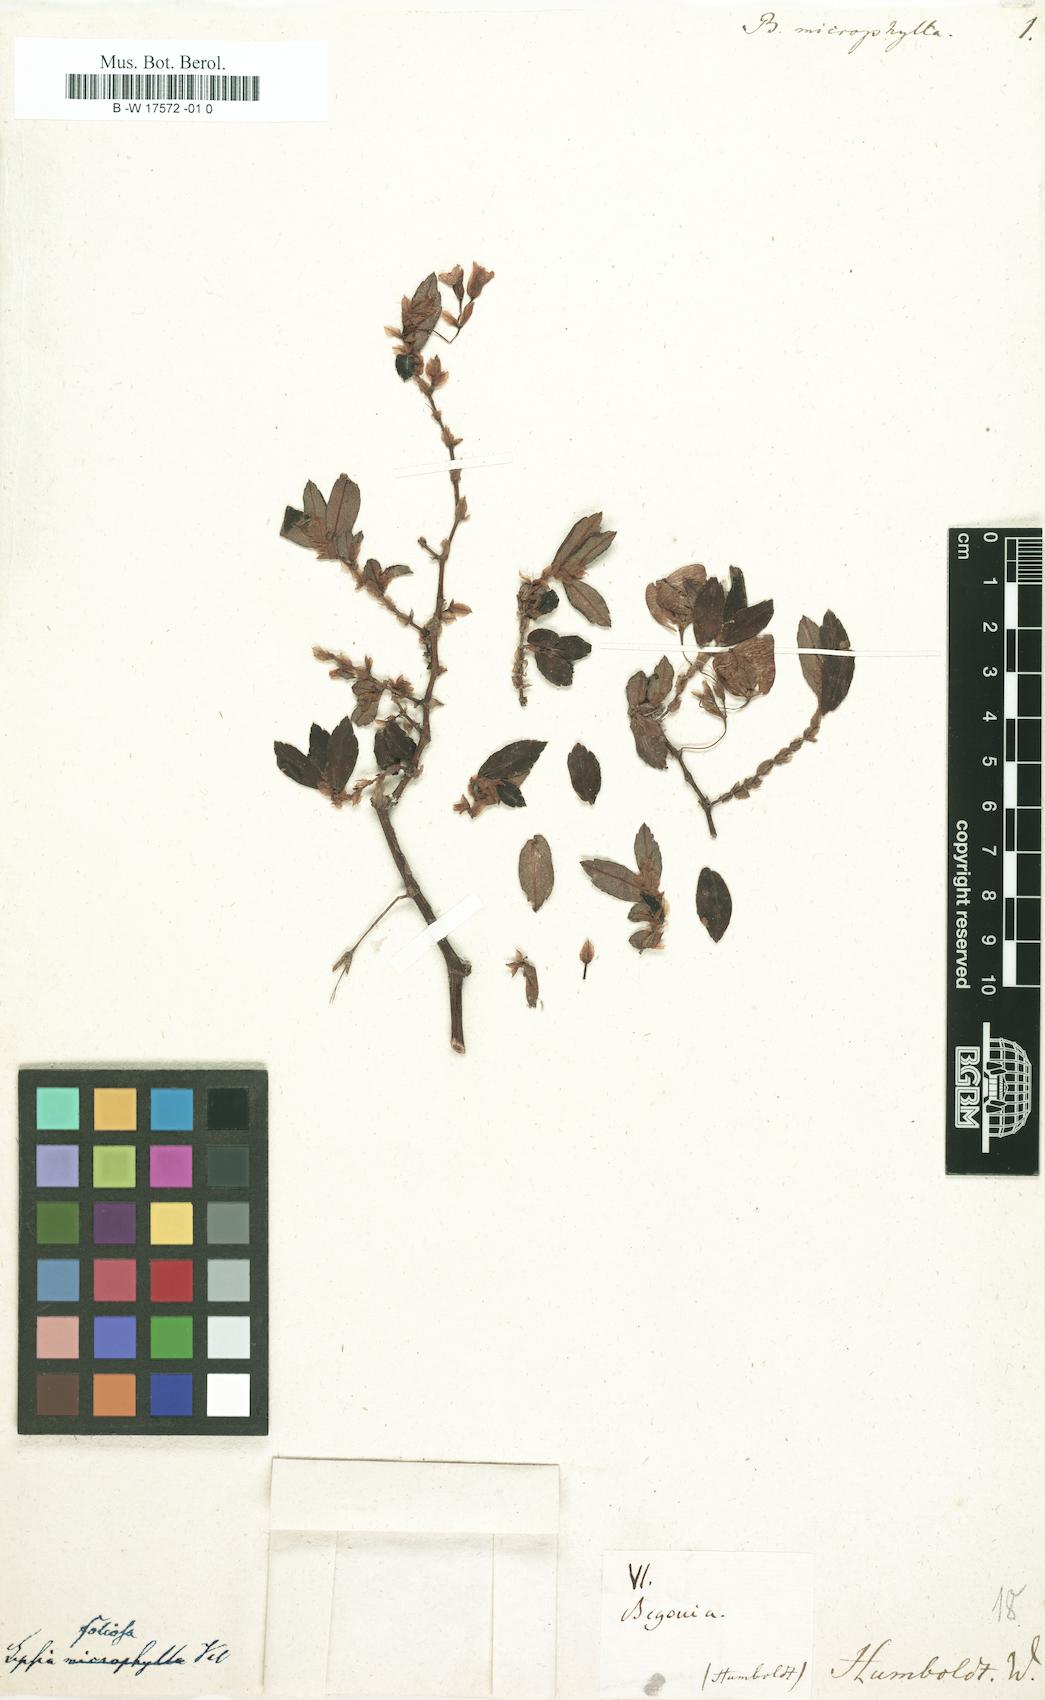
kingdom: Plantae
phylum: Tracheophyta
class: Magnoliopsida
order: Cucurbitales
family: Begoniaceae
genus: Begonia
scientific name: Begonia microphylla
